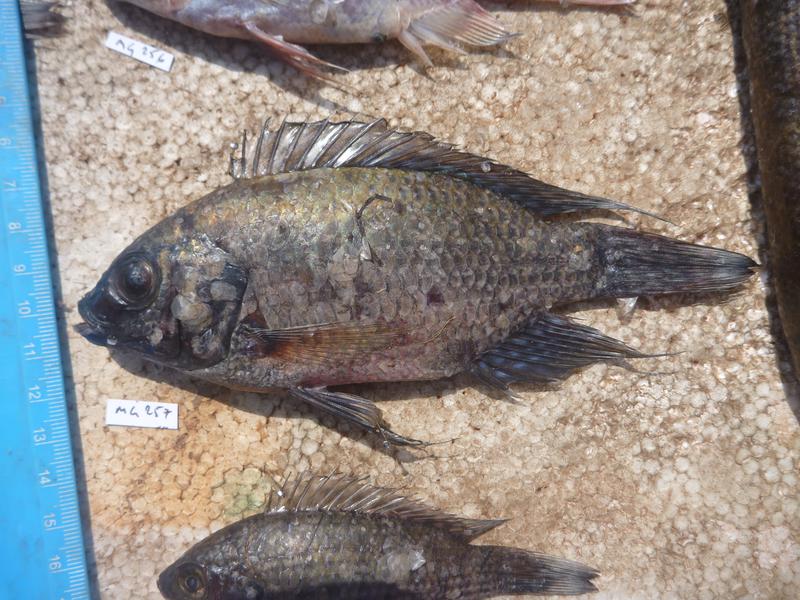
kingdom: Animalia
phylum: Chordata
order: Perciformes
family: Cichlidae
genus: Oreochromis
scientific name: Oreochromis leucostictus
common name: Blue spotted tilapia
